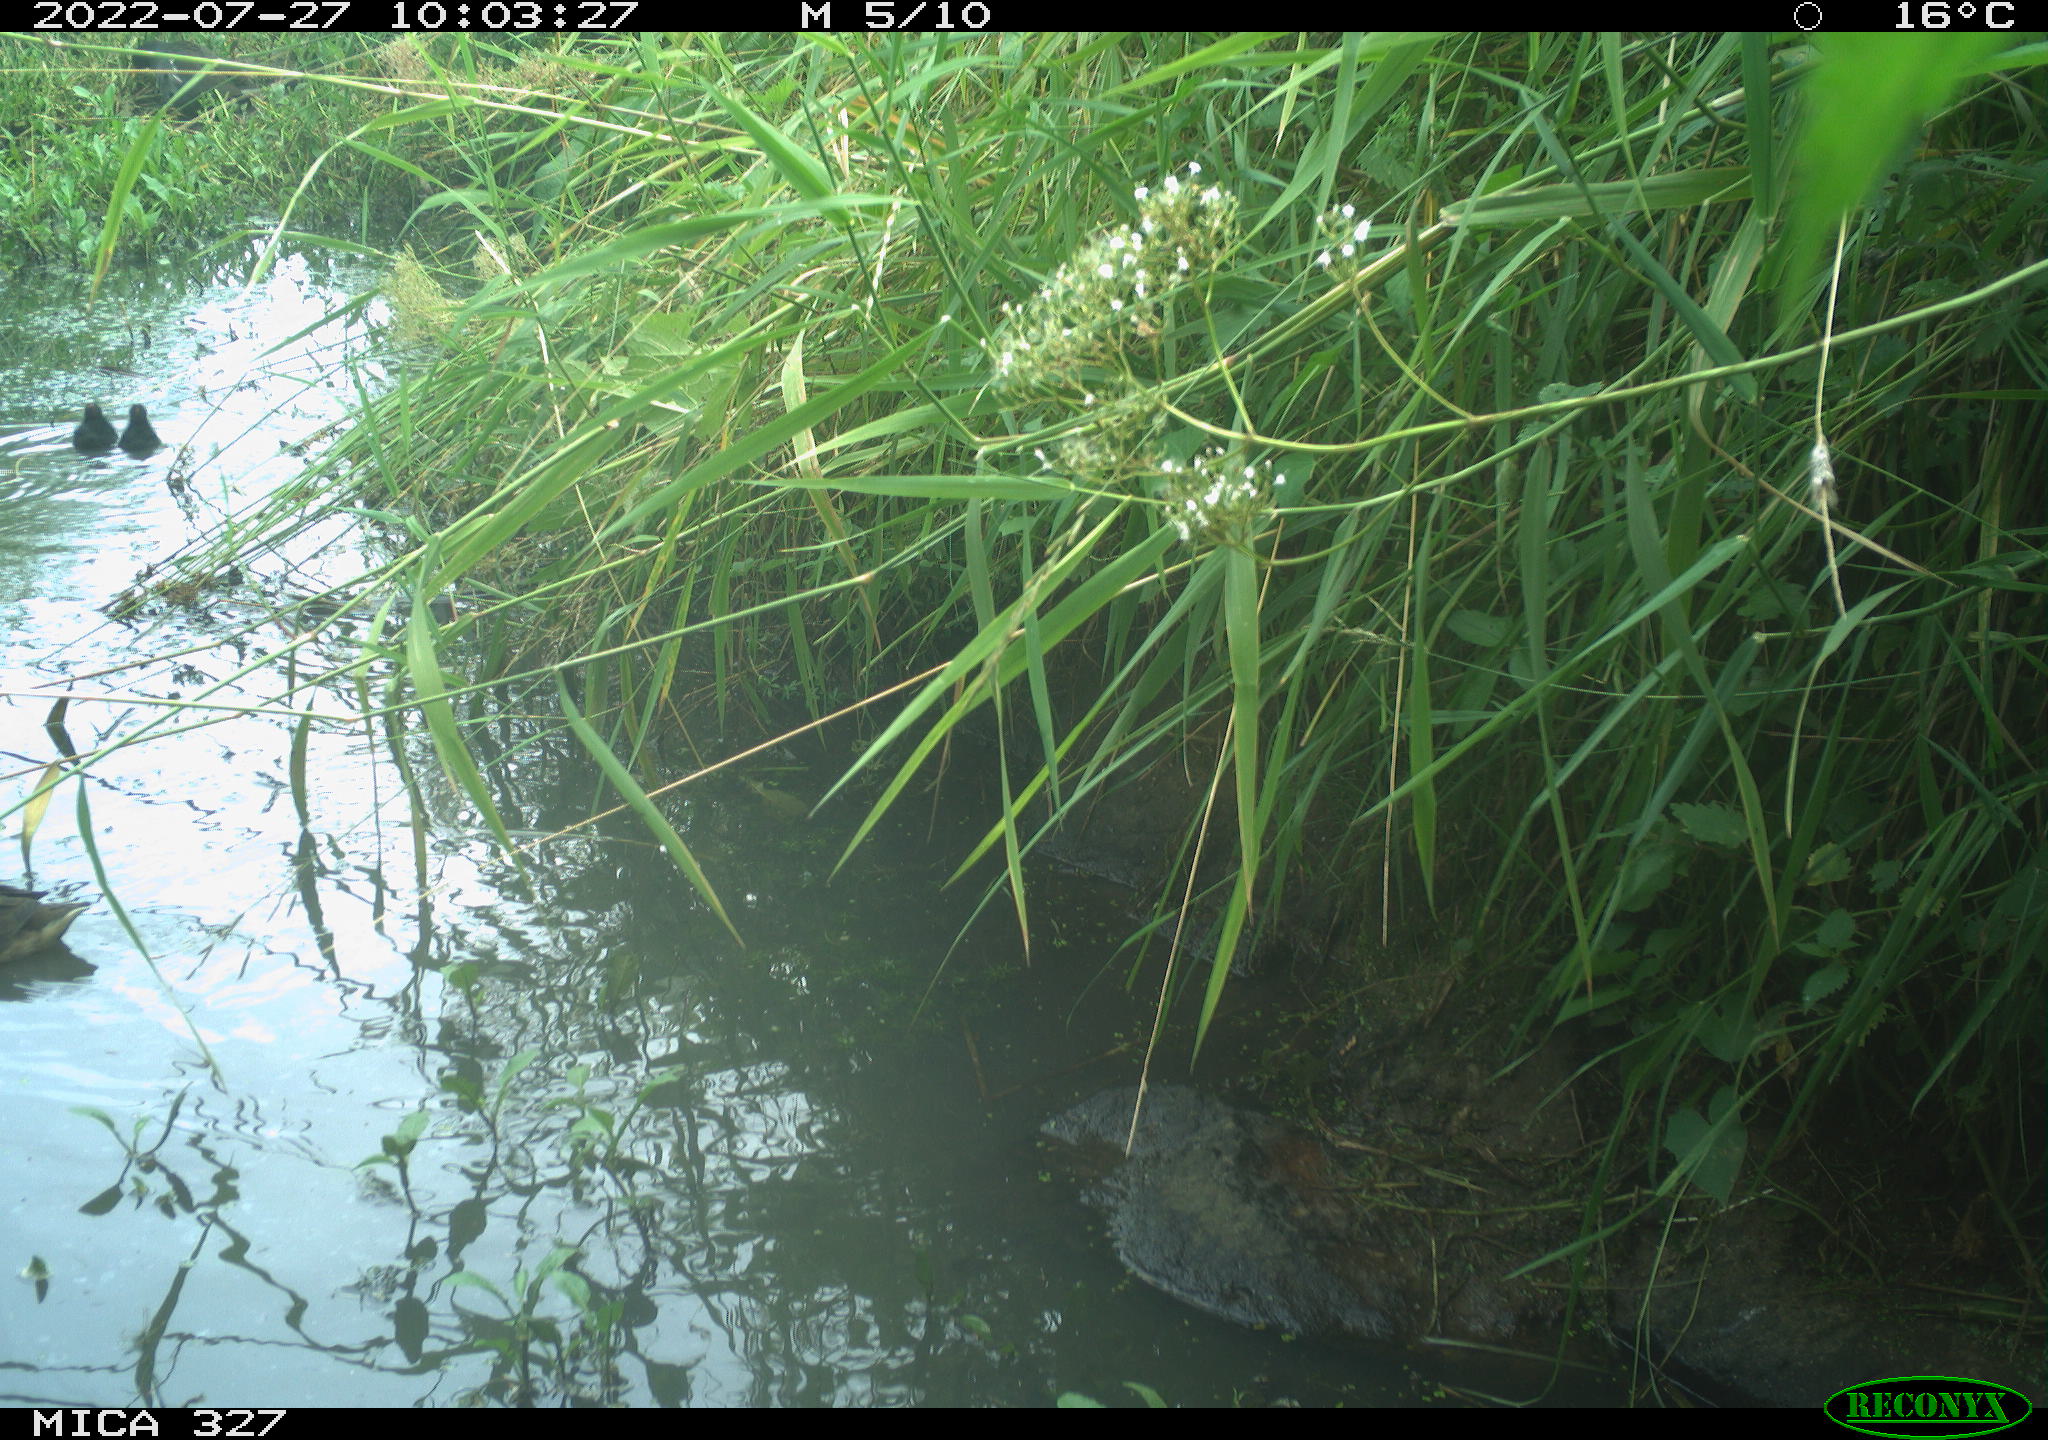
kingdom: Animalia
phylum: Chordata
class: Aves
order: Gruiformes
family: Rallidae
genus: Gallinula
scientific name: Gallinula chloropus
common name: Common moorhen
